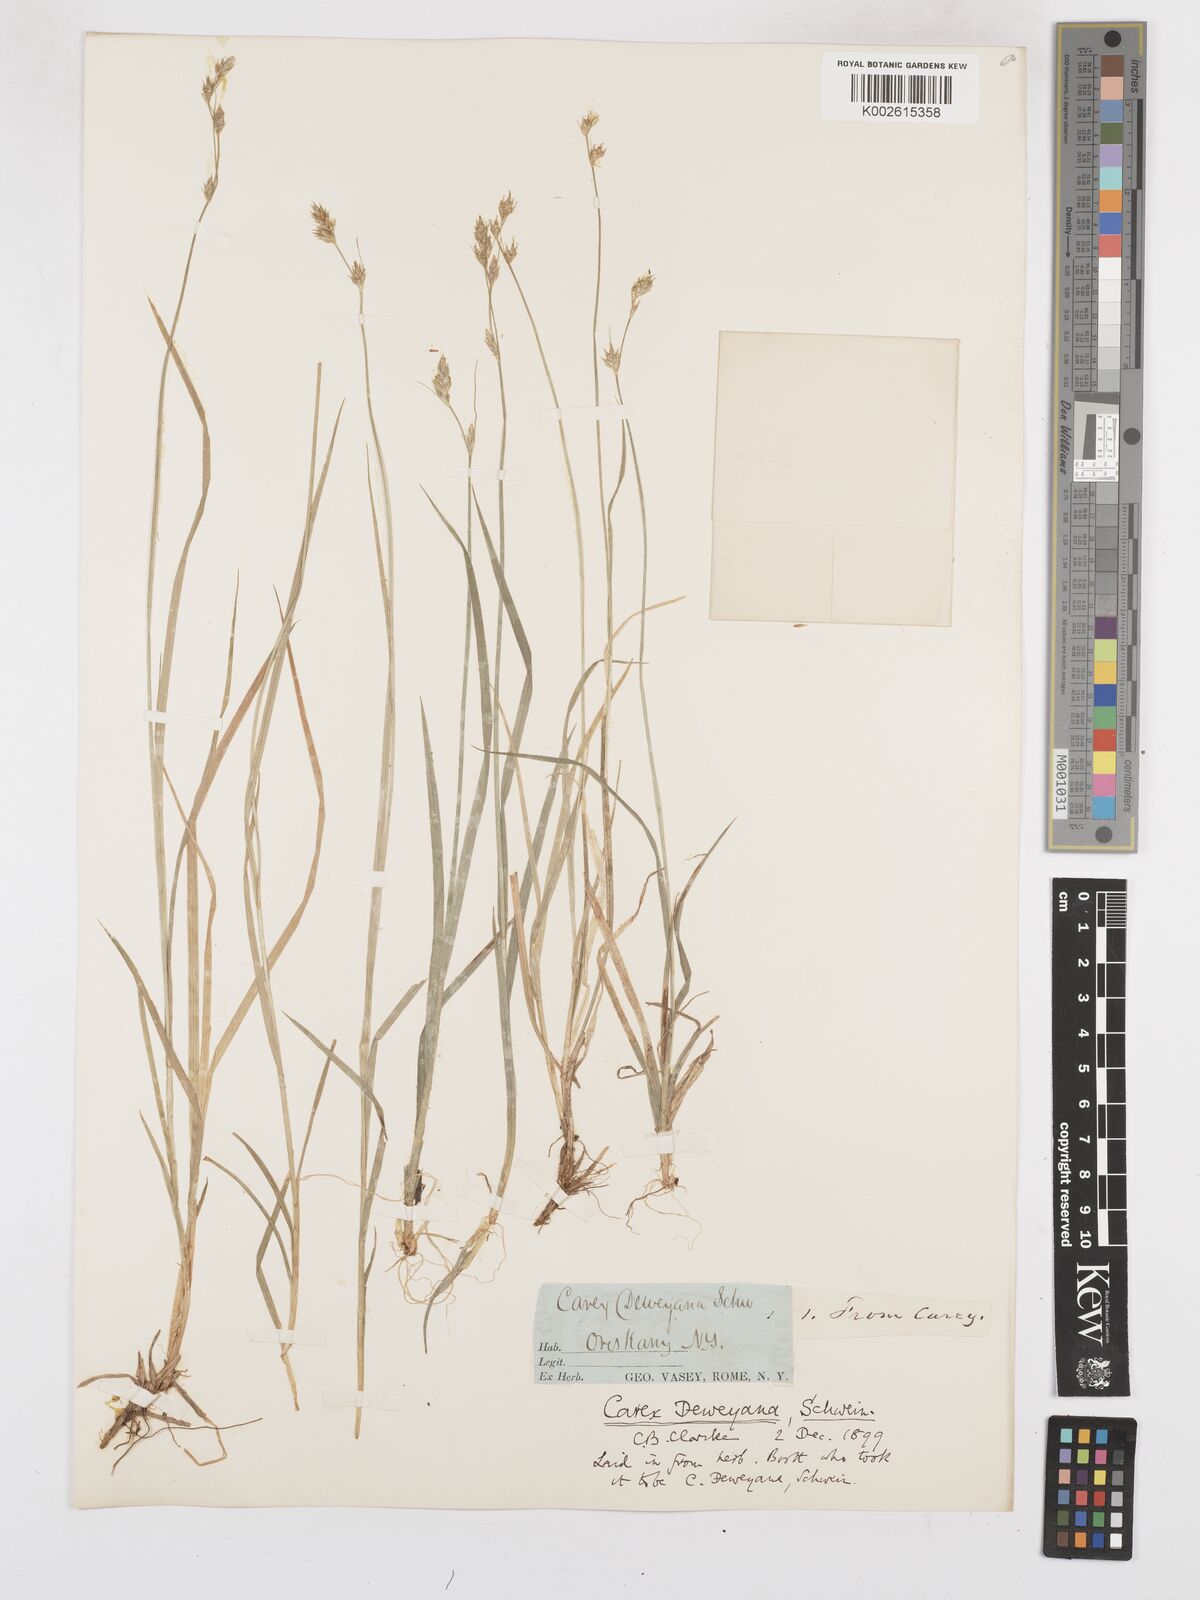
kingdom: Plantae
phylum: Tracheophyta
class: Liliopsida
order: Poales
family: Cyperaceae
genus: Carex
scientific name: Carex deweyana
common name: Dewey's sedge
